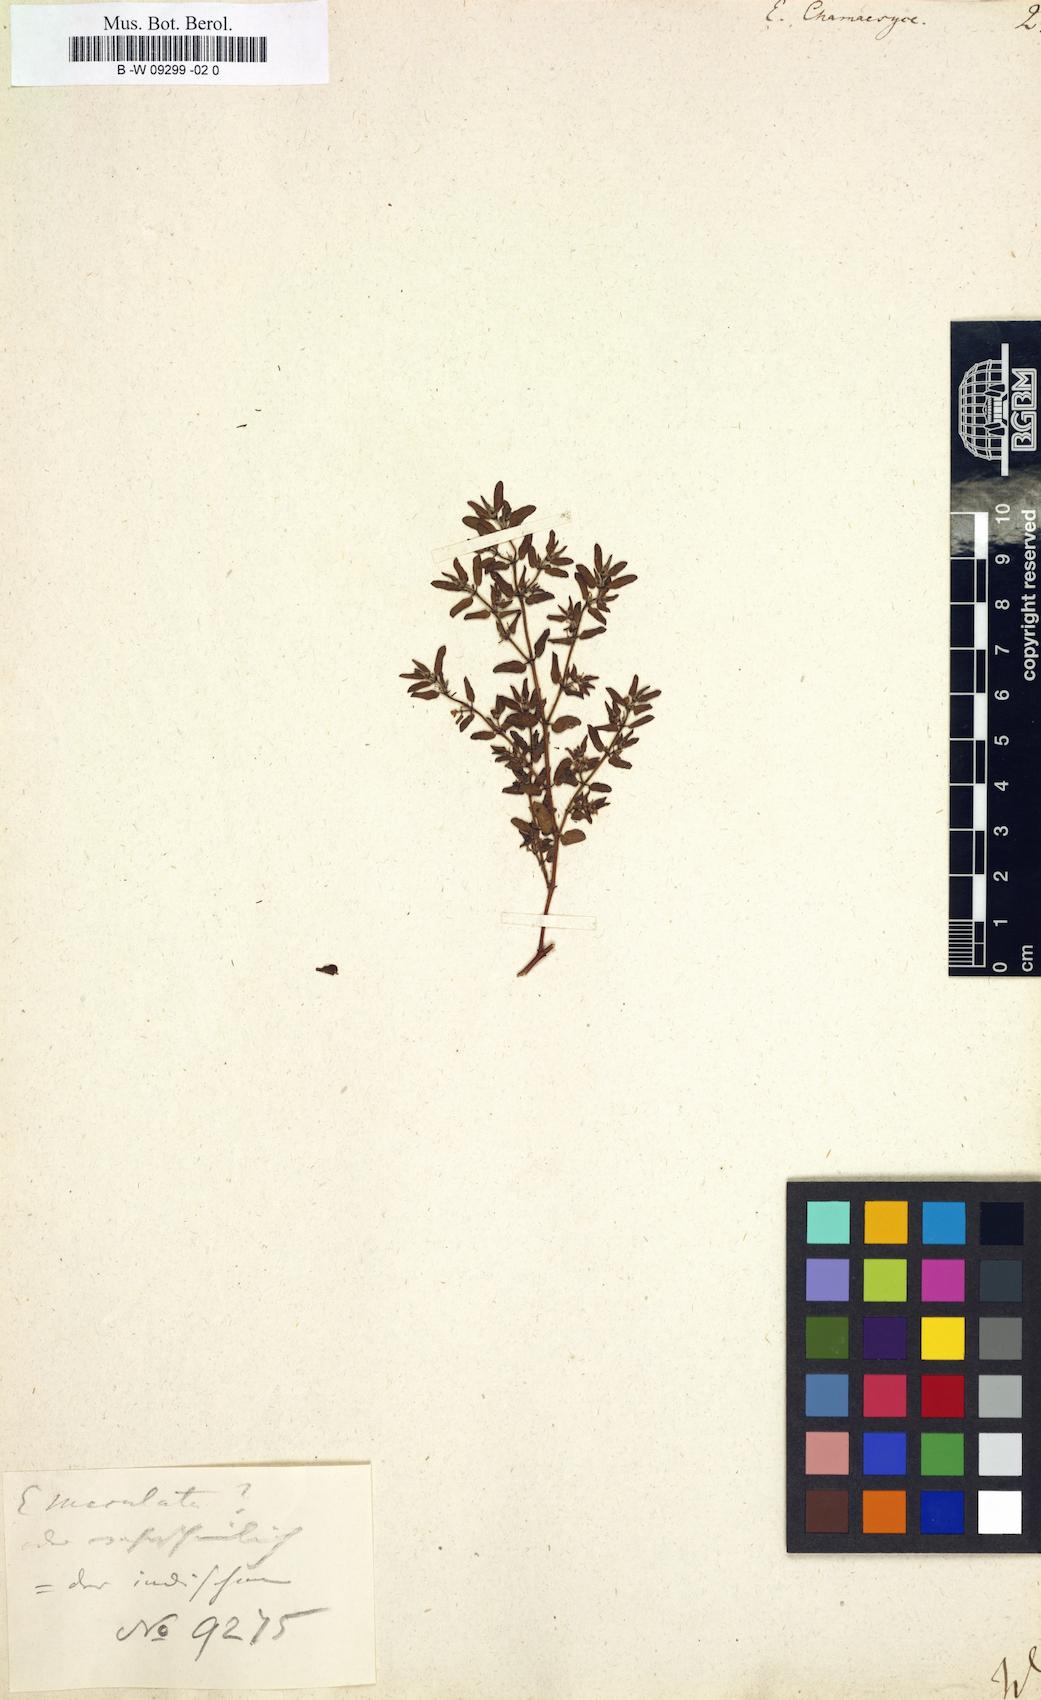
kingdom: Plantae
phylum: Tracheophyta
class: Magnoliopsida
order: Malpighiales
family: Euphorbiaceae
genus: Euphorbia
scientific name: Euphorbia chamaesyce
